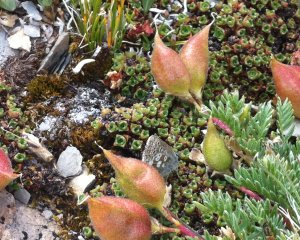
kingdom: Animalia
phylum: Arthropoda
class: Insecta
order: Lepidoptera
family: Lycaenidae
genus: Agriades
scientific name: Agriades glandon
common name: Arctic Blue
